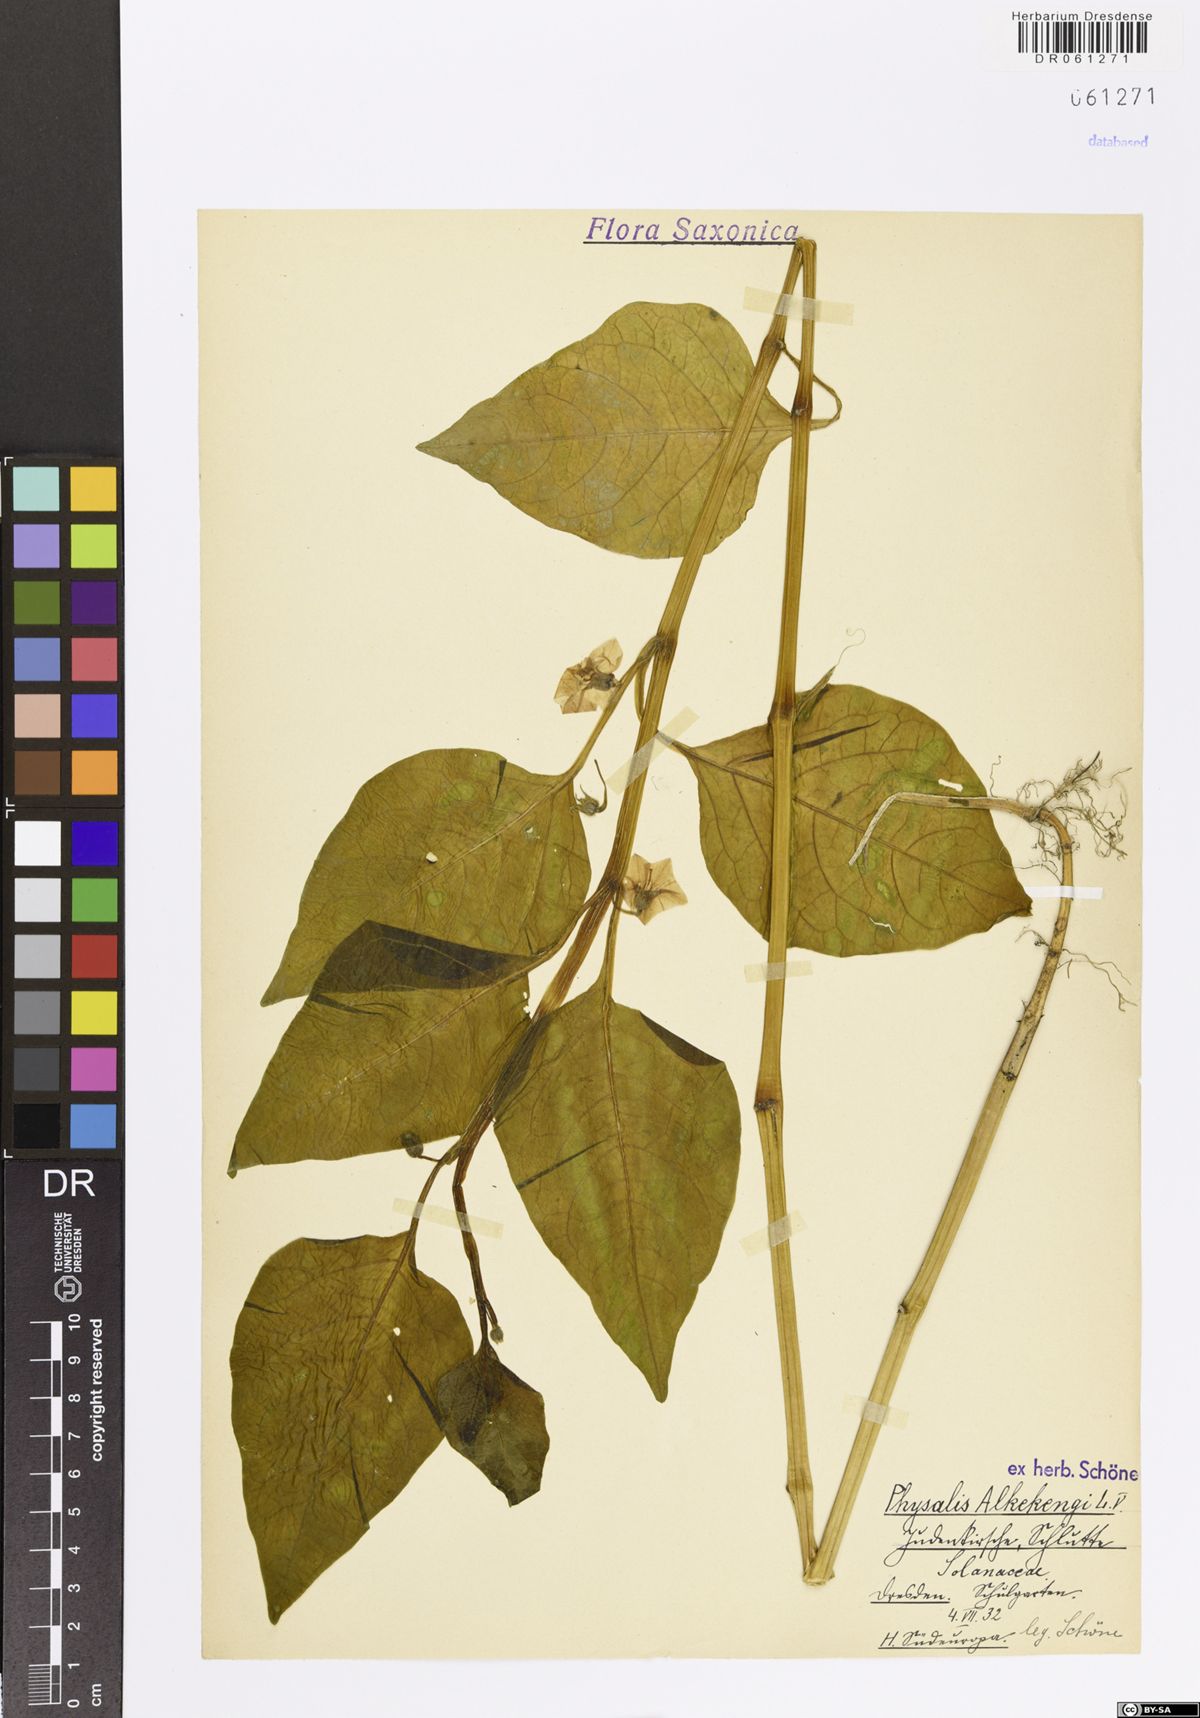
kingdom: Plantae
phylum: Tracheophyta
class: Magnoliopsida
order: Solanales
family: Solanaceae
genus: Alkekengi
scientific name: Alkekengi officinarum
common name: Japanese-lantern
